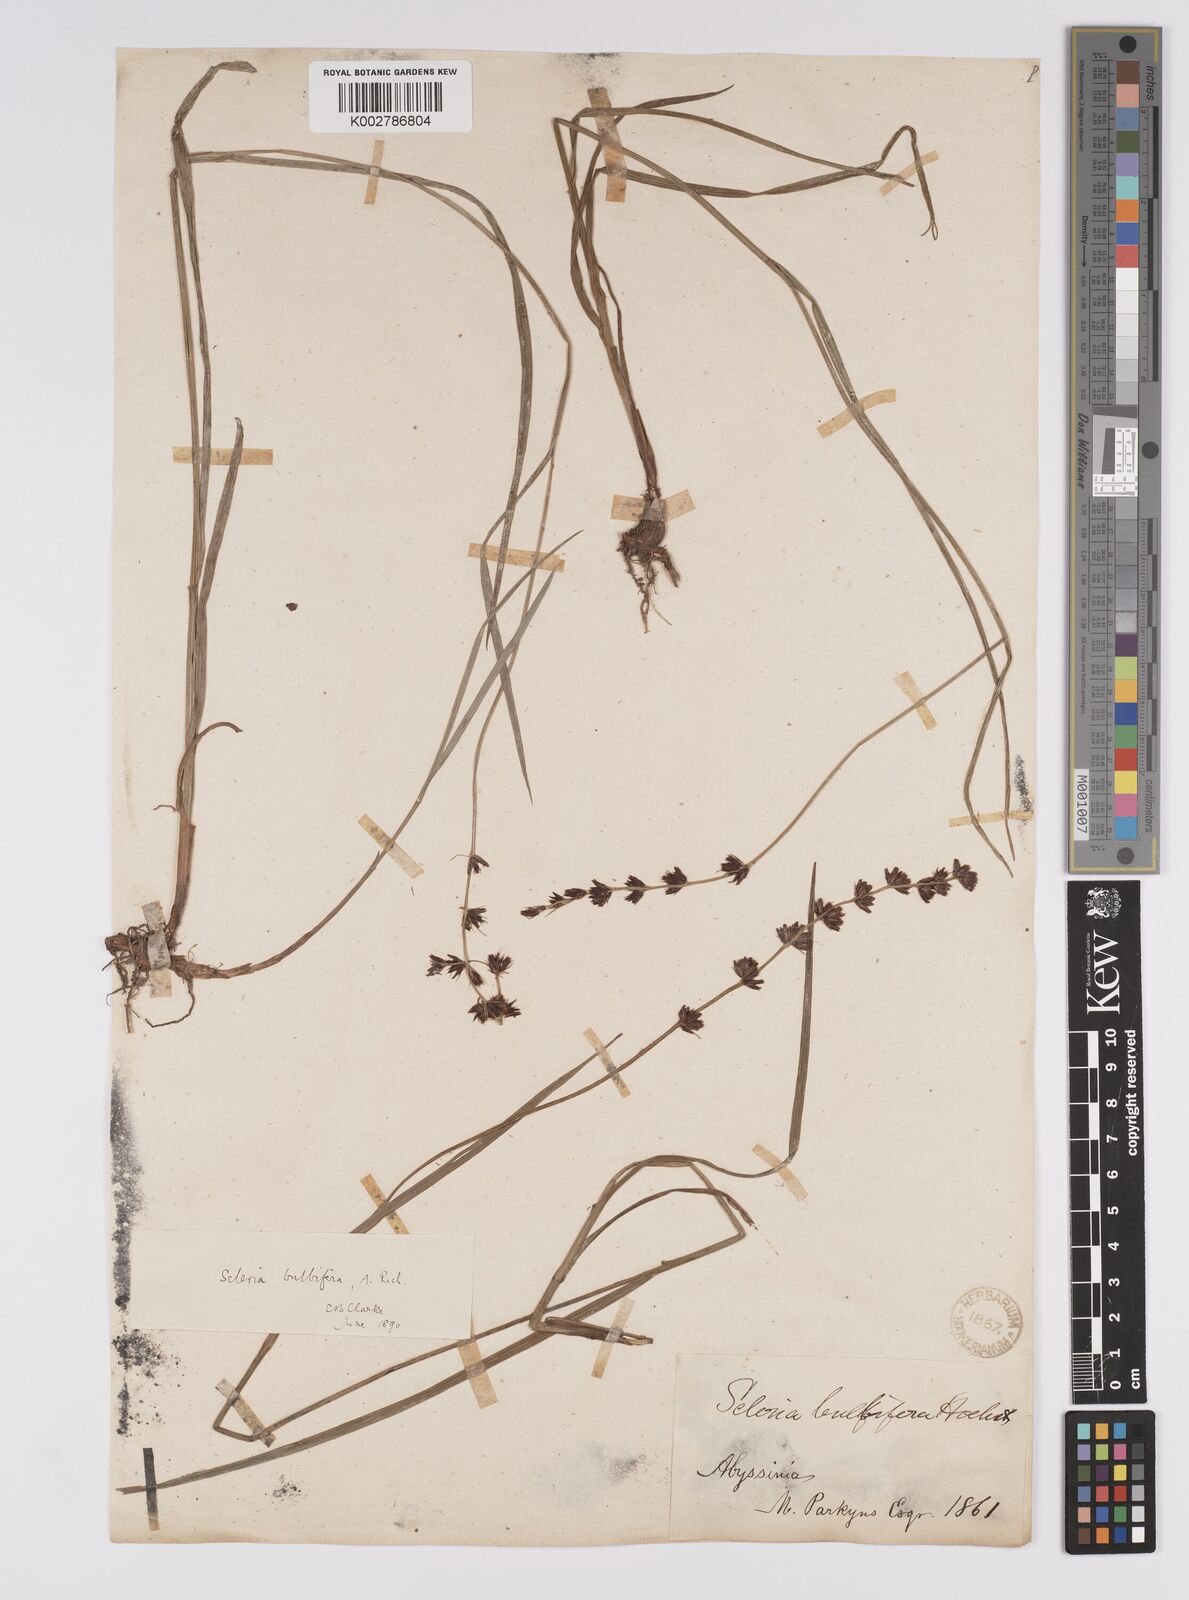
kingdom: Plantae
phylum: Tracheophyta
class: Liliopsida
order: Poales
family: Cyperaceae
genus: Scleria
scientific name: Scleria bulbifera
